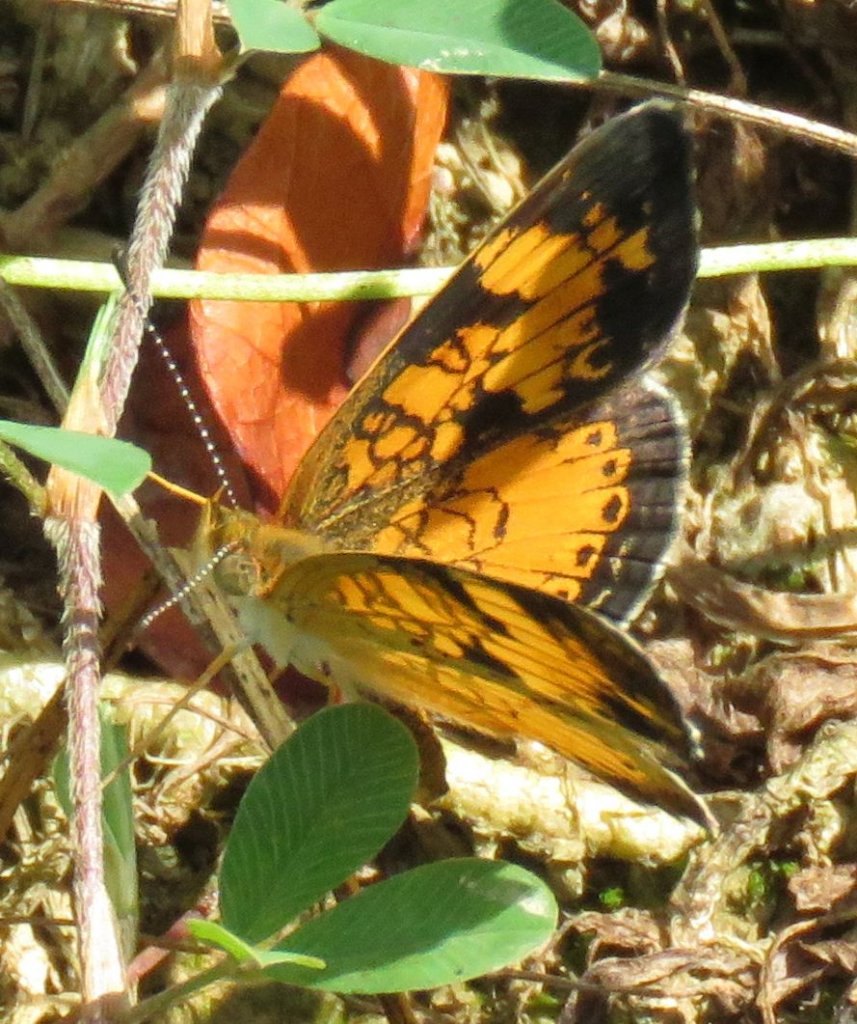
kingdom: Animalia
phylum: Arthropoda
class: Insecta
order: Lepidoptera
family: Nymphalidae
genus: Phyciodes
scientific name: Phyciodes tharos
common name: Pearl Crescent
